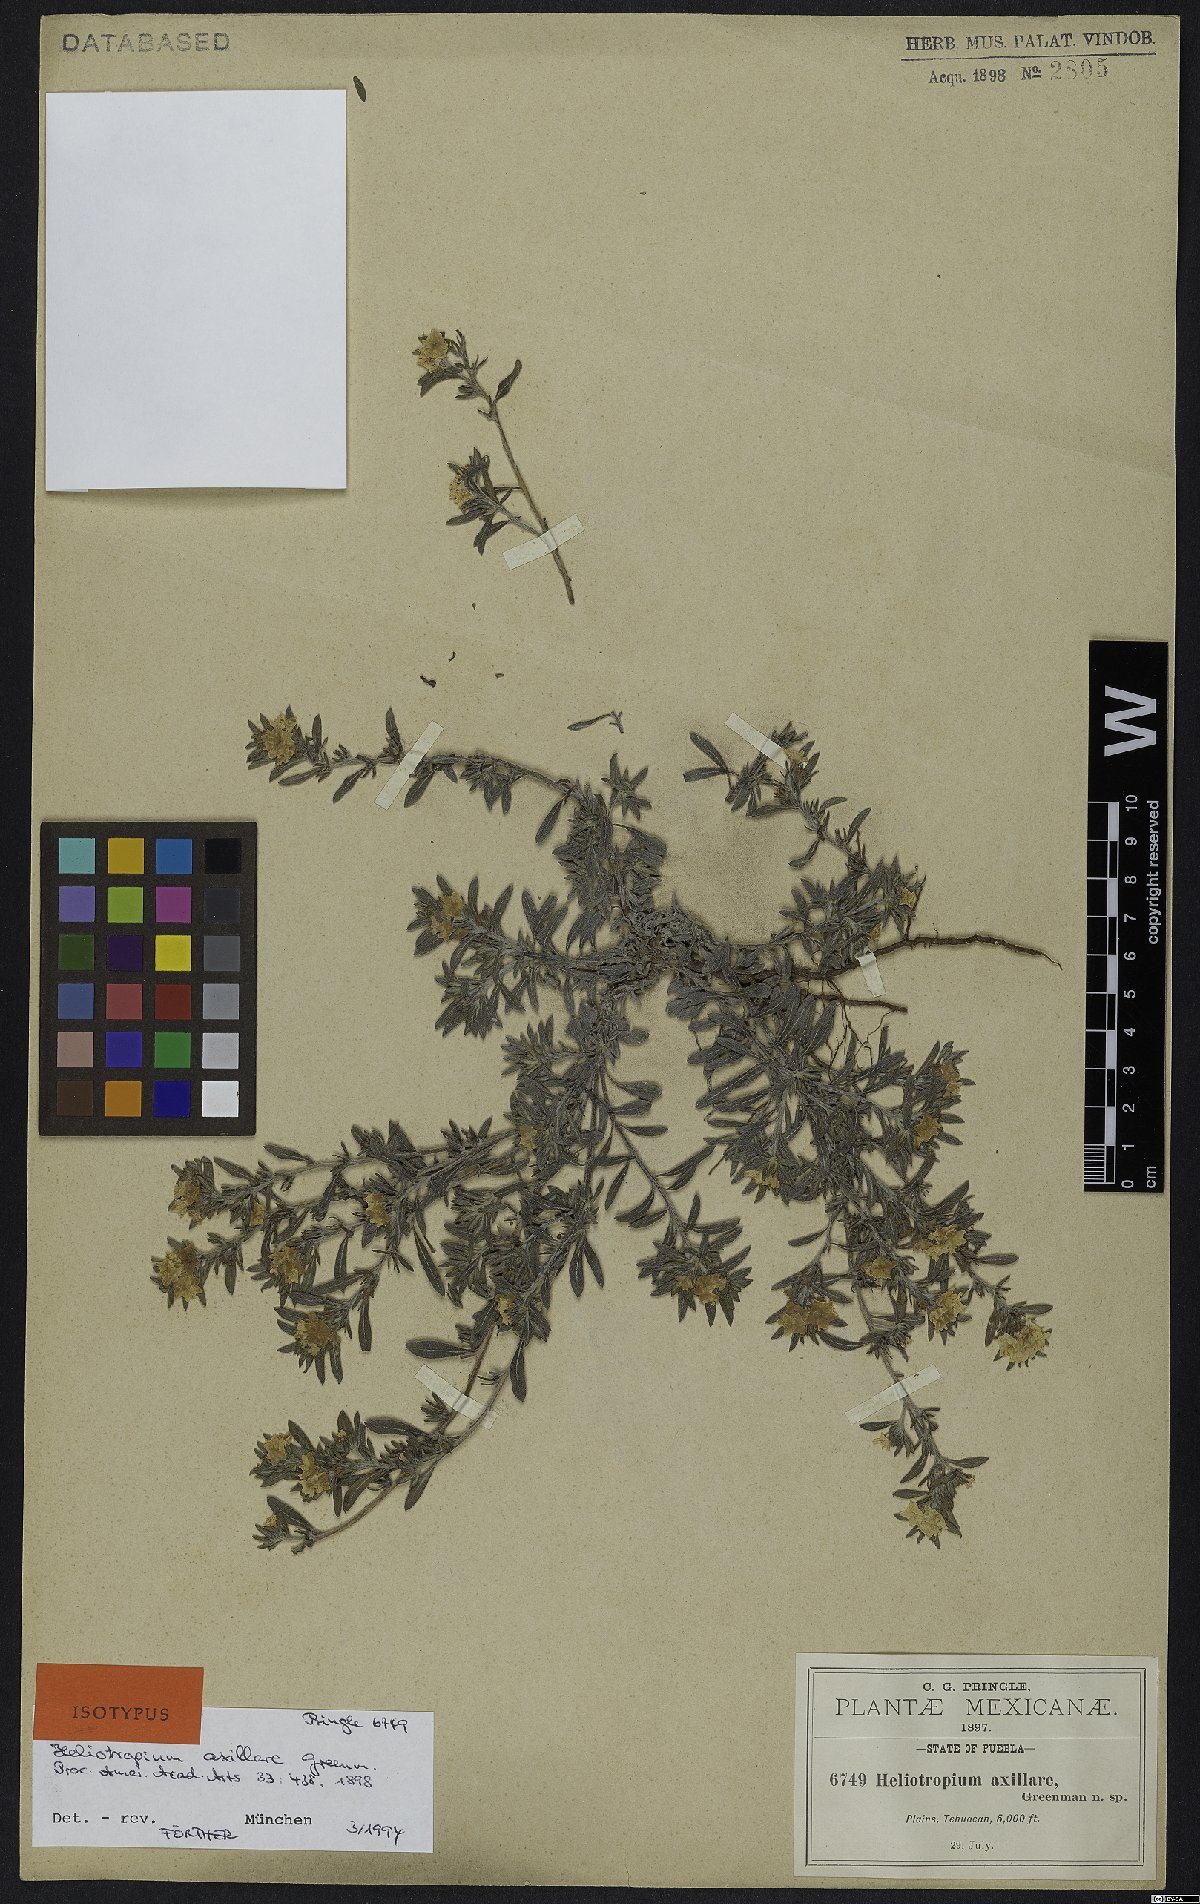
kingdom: Plantae
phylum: Tracheophyta
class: Magnoliopsida
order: Boraginales
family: Heliotropiaceae
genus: Euploca
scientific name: Euploca axillaris
